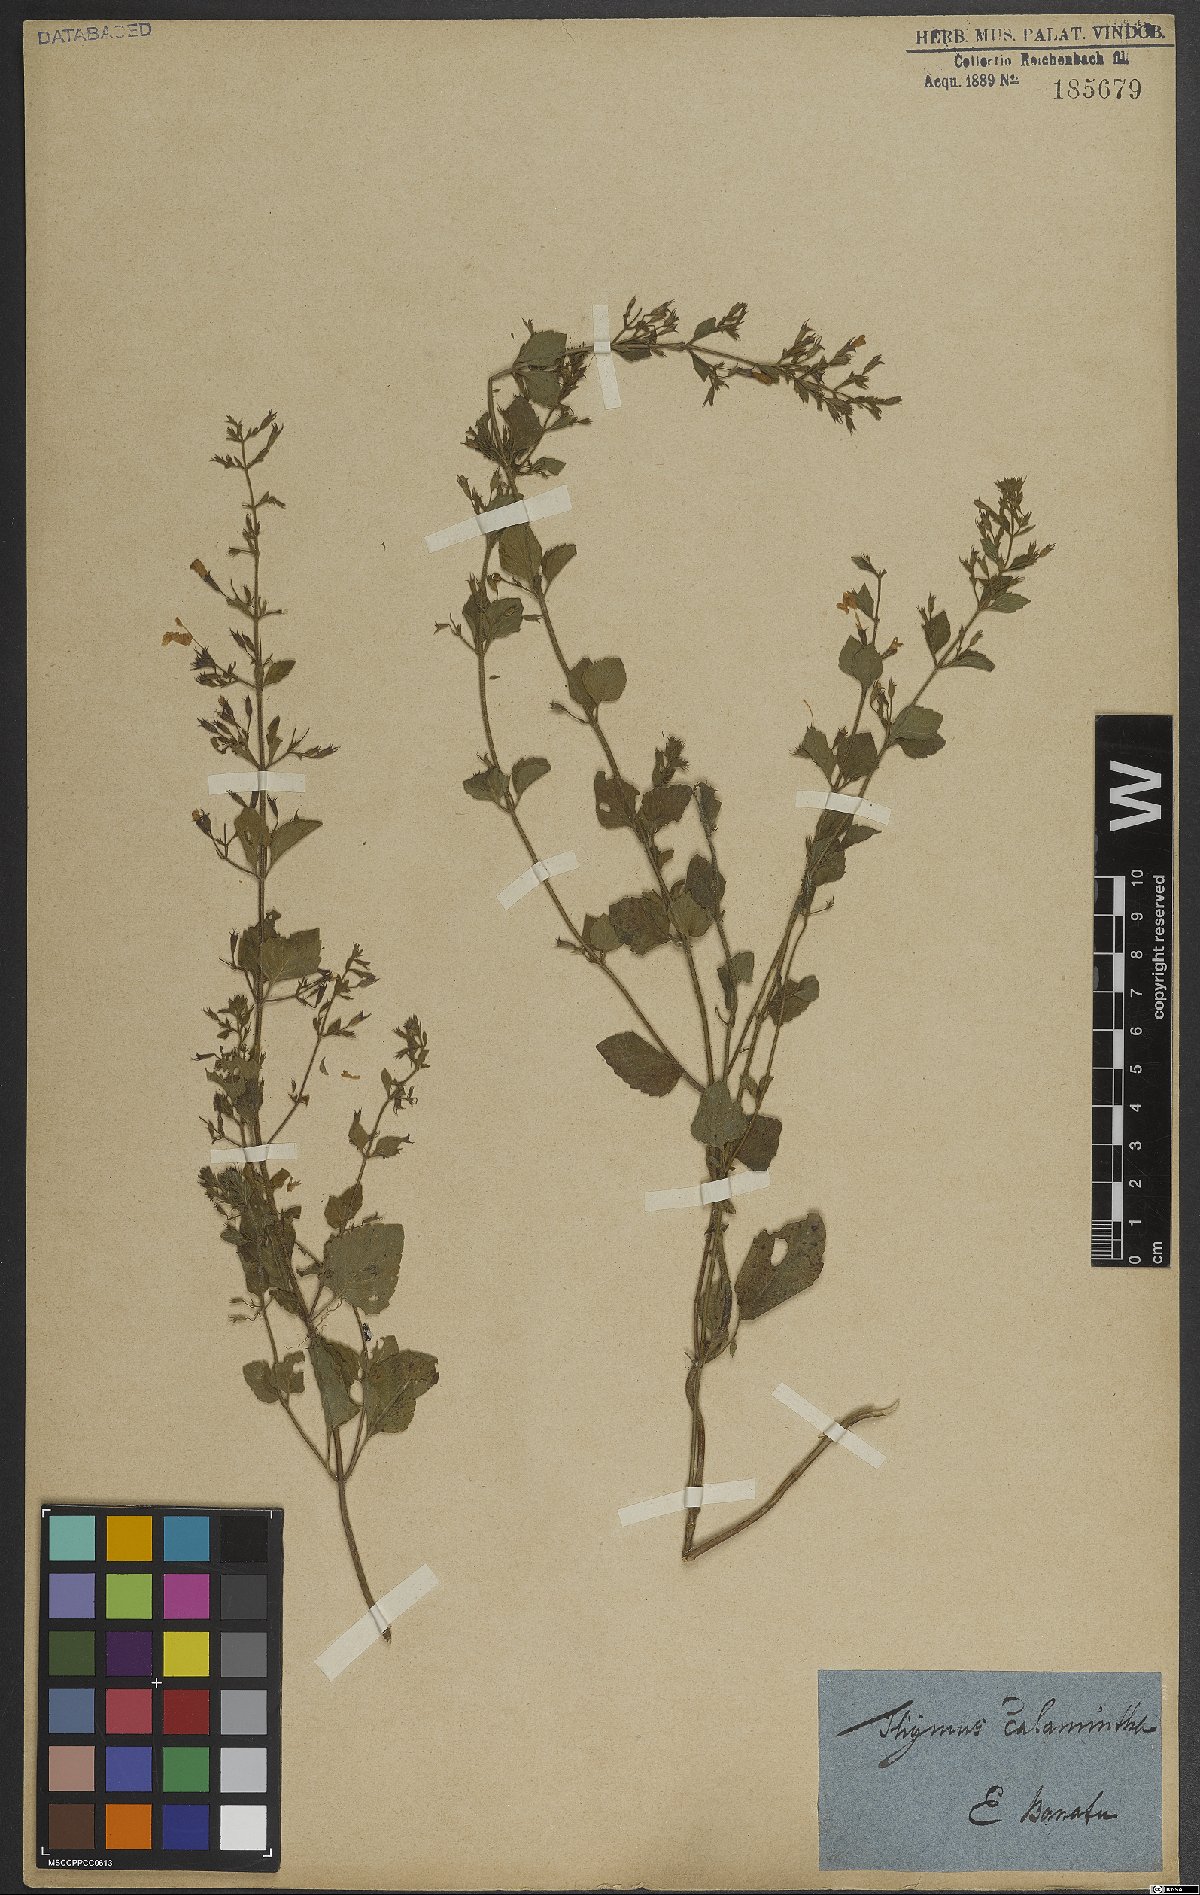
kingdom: Plantae
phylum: Tracheophyta
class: Magnoliopsida
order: Lamiales
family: Lamiaceae
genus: Clinopodium
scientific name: Clinopodium menthifolium
